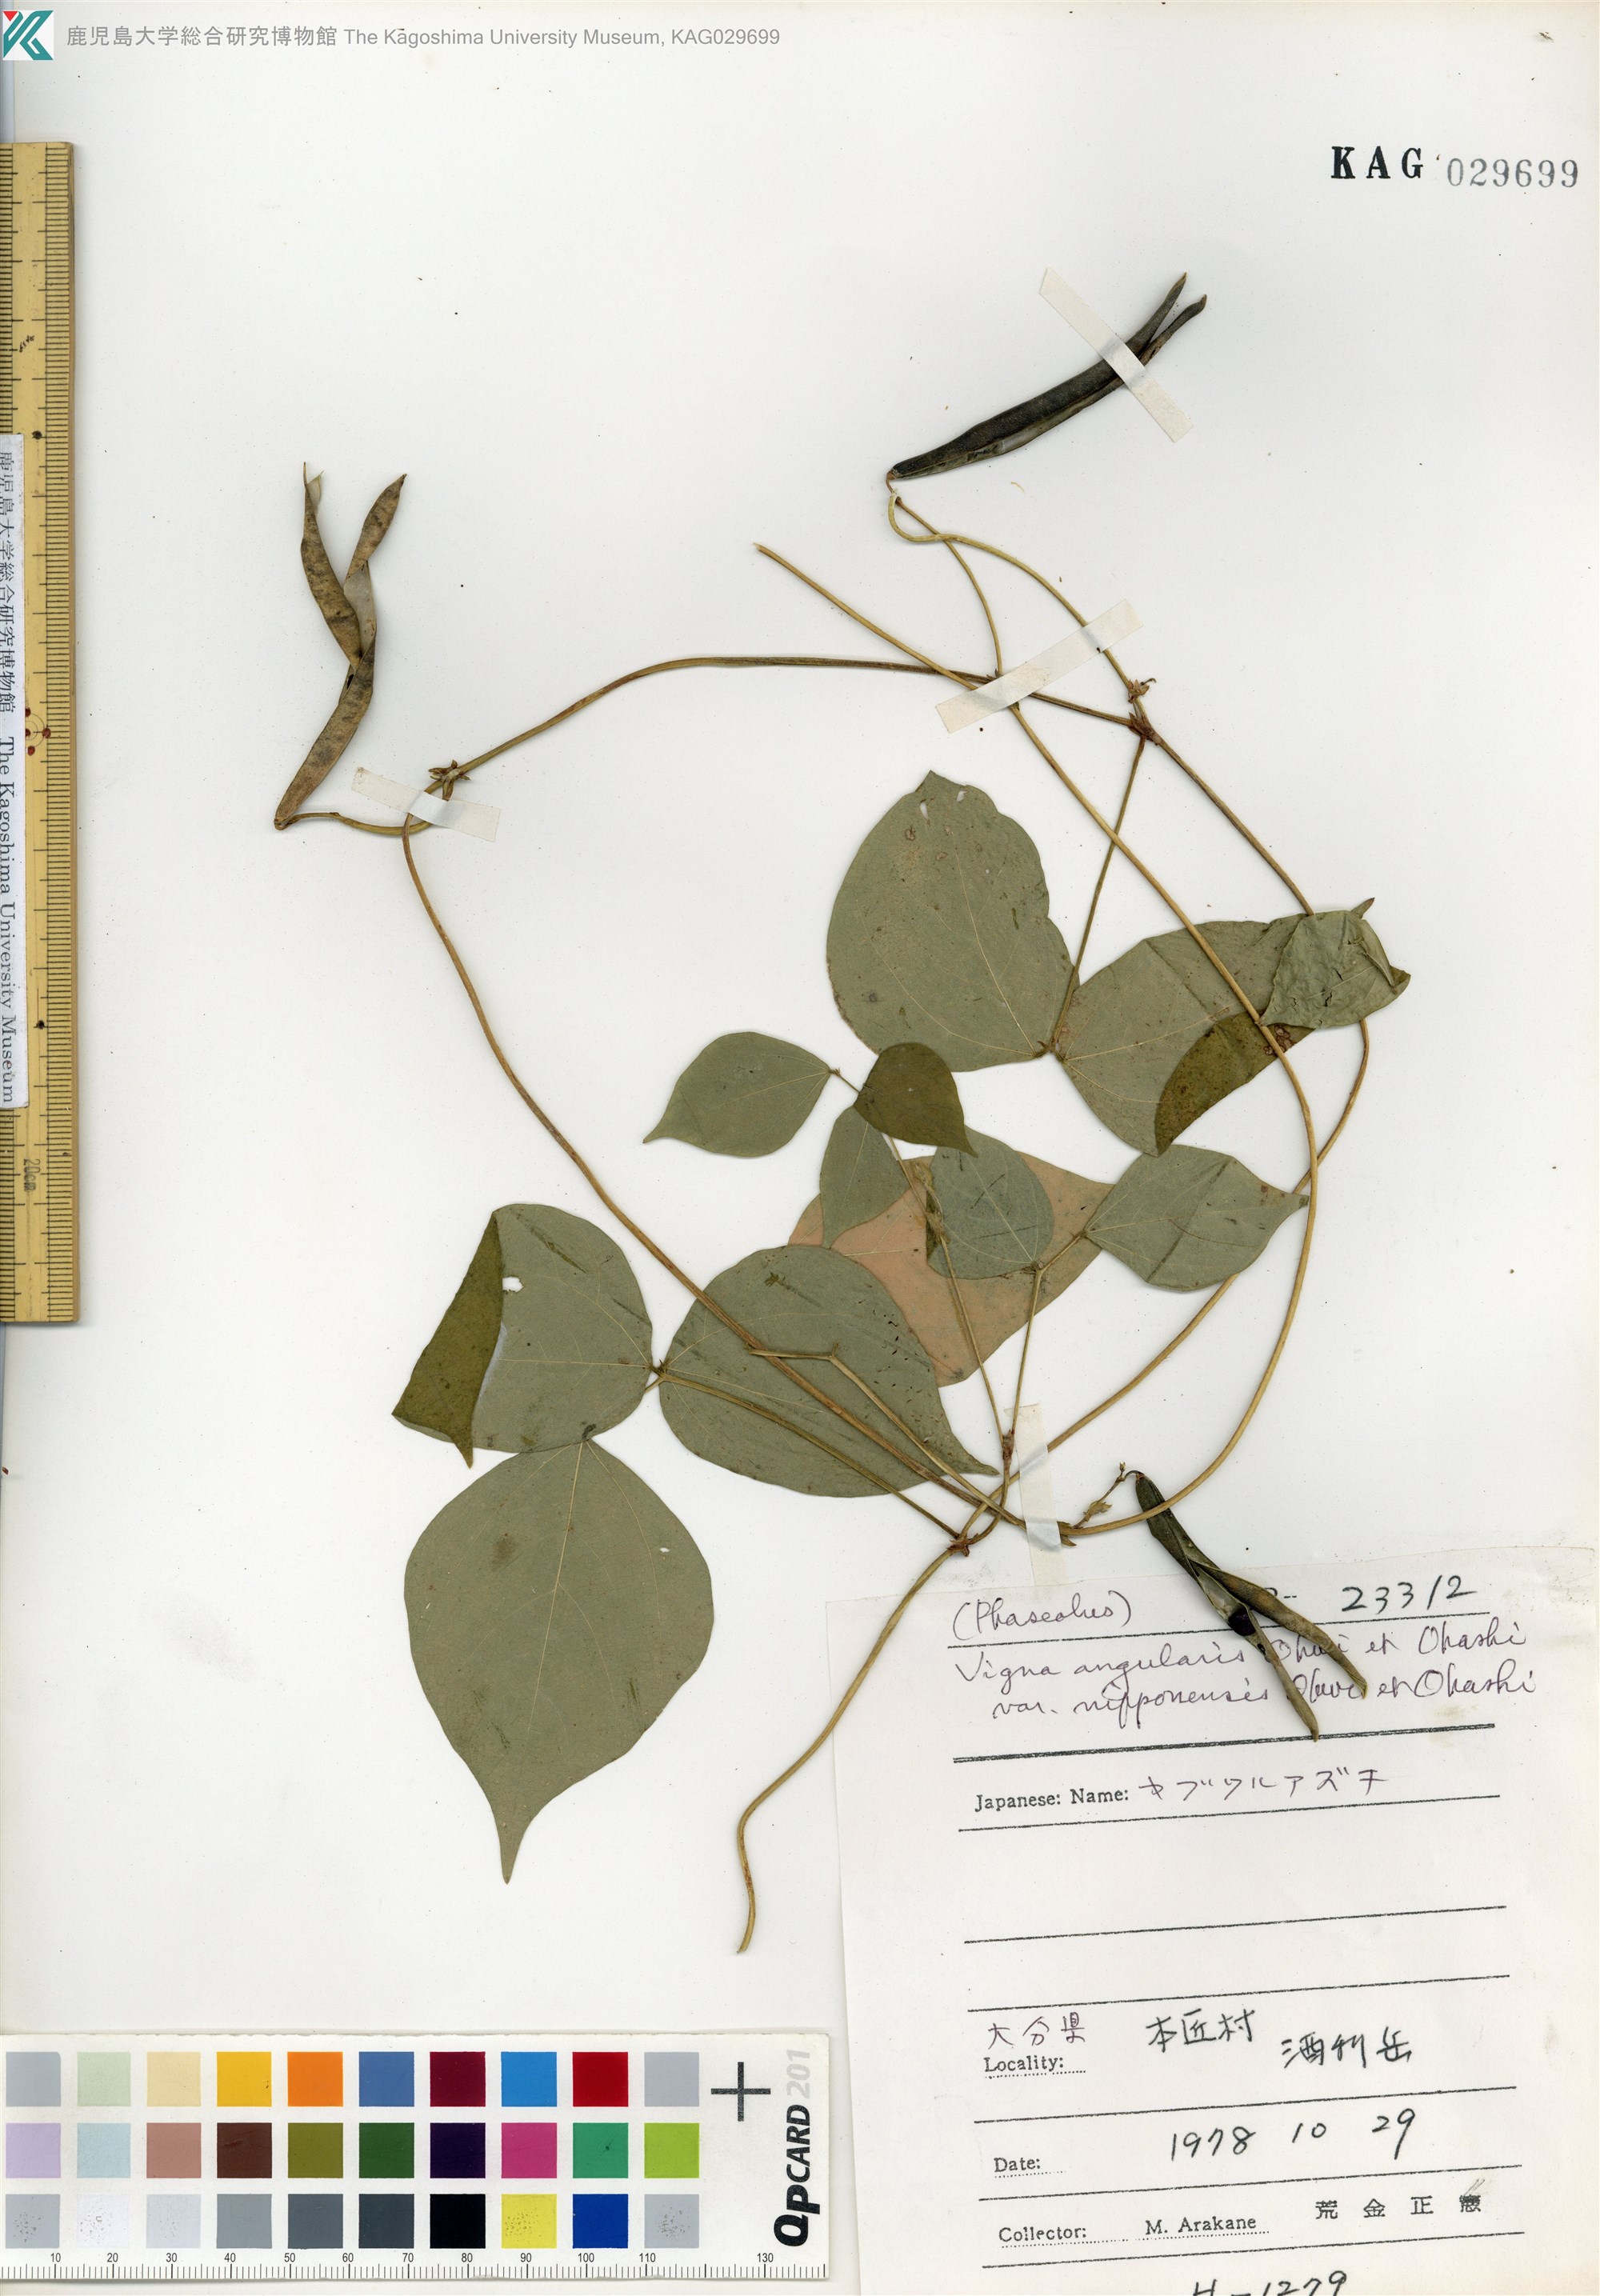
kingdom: Plantae
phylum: Tracheophyta
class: Magnoliopsida
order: Fabales
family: Fabaceae
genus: Vigna
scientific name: Vigna angularis
